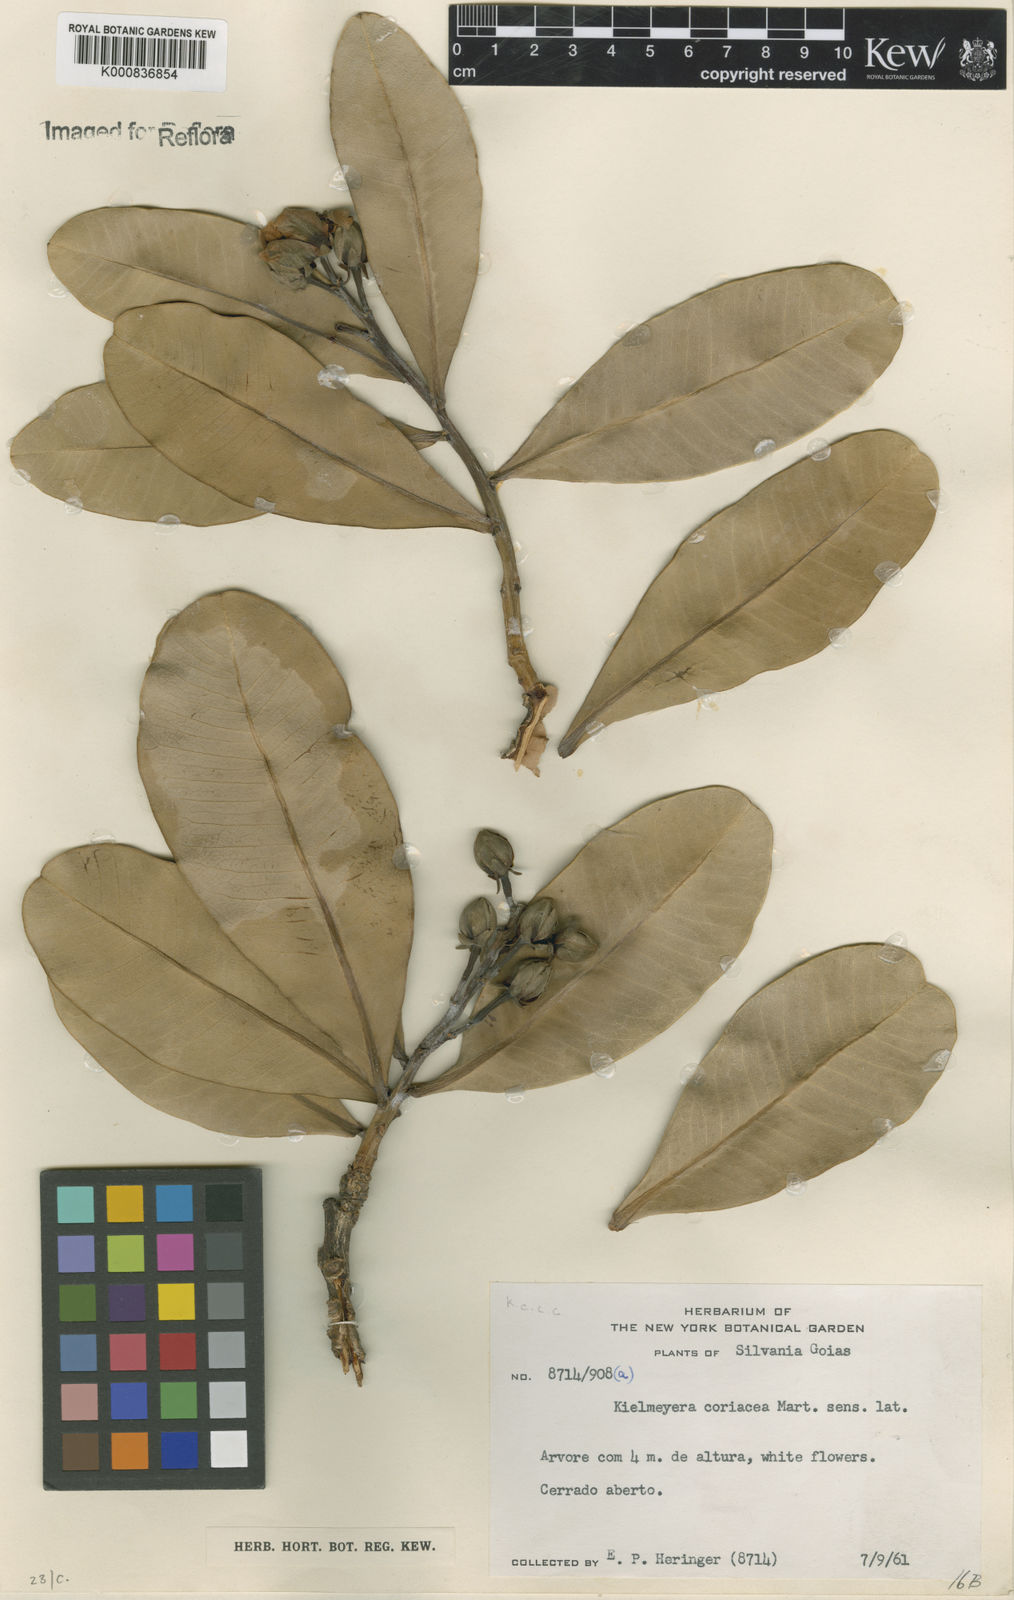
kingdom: Plantae
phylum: Tracheophyta
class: Magnoliopsida
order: Malpighiales
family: Calophyllaceae
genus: Kielmeyera
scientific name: Kielmeyera coriacea
